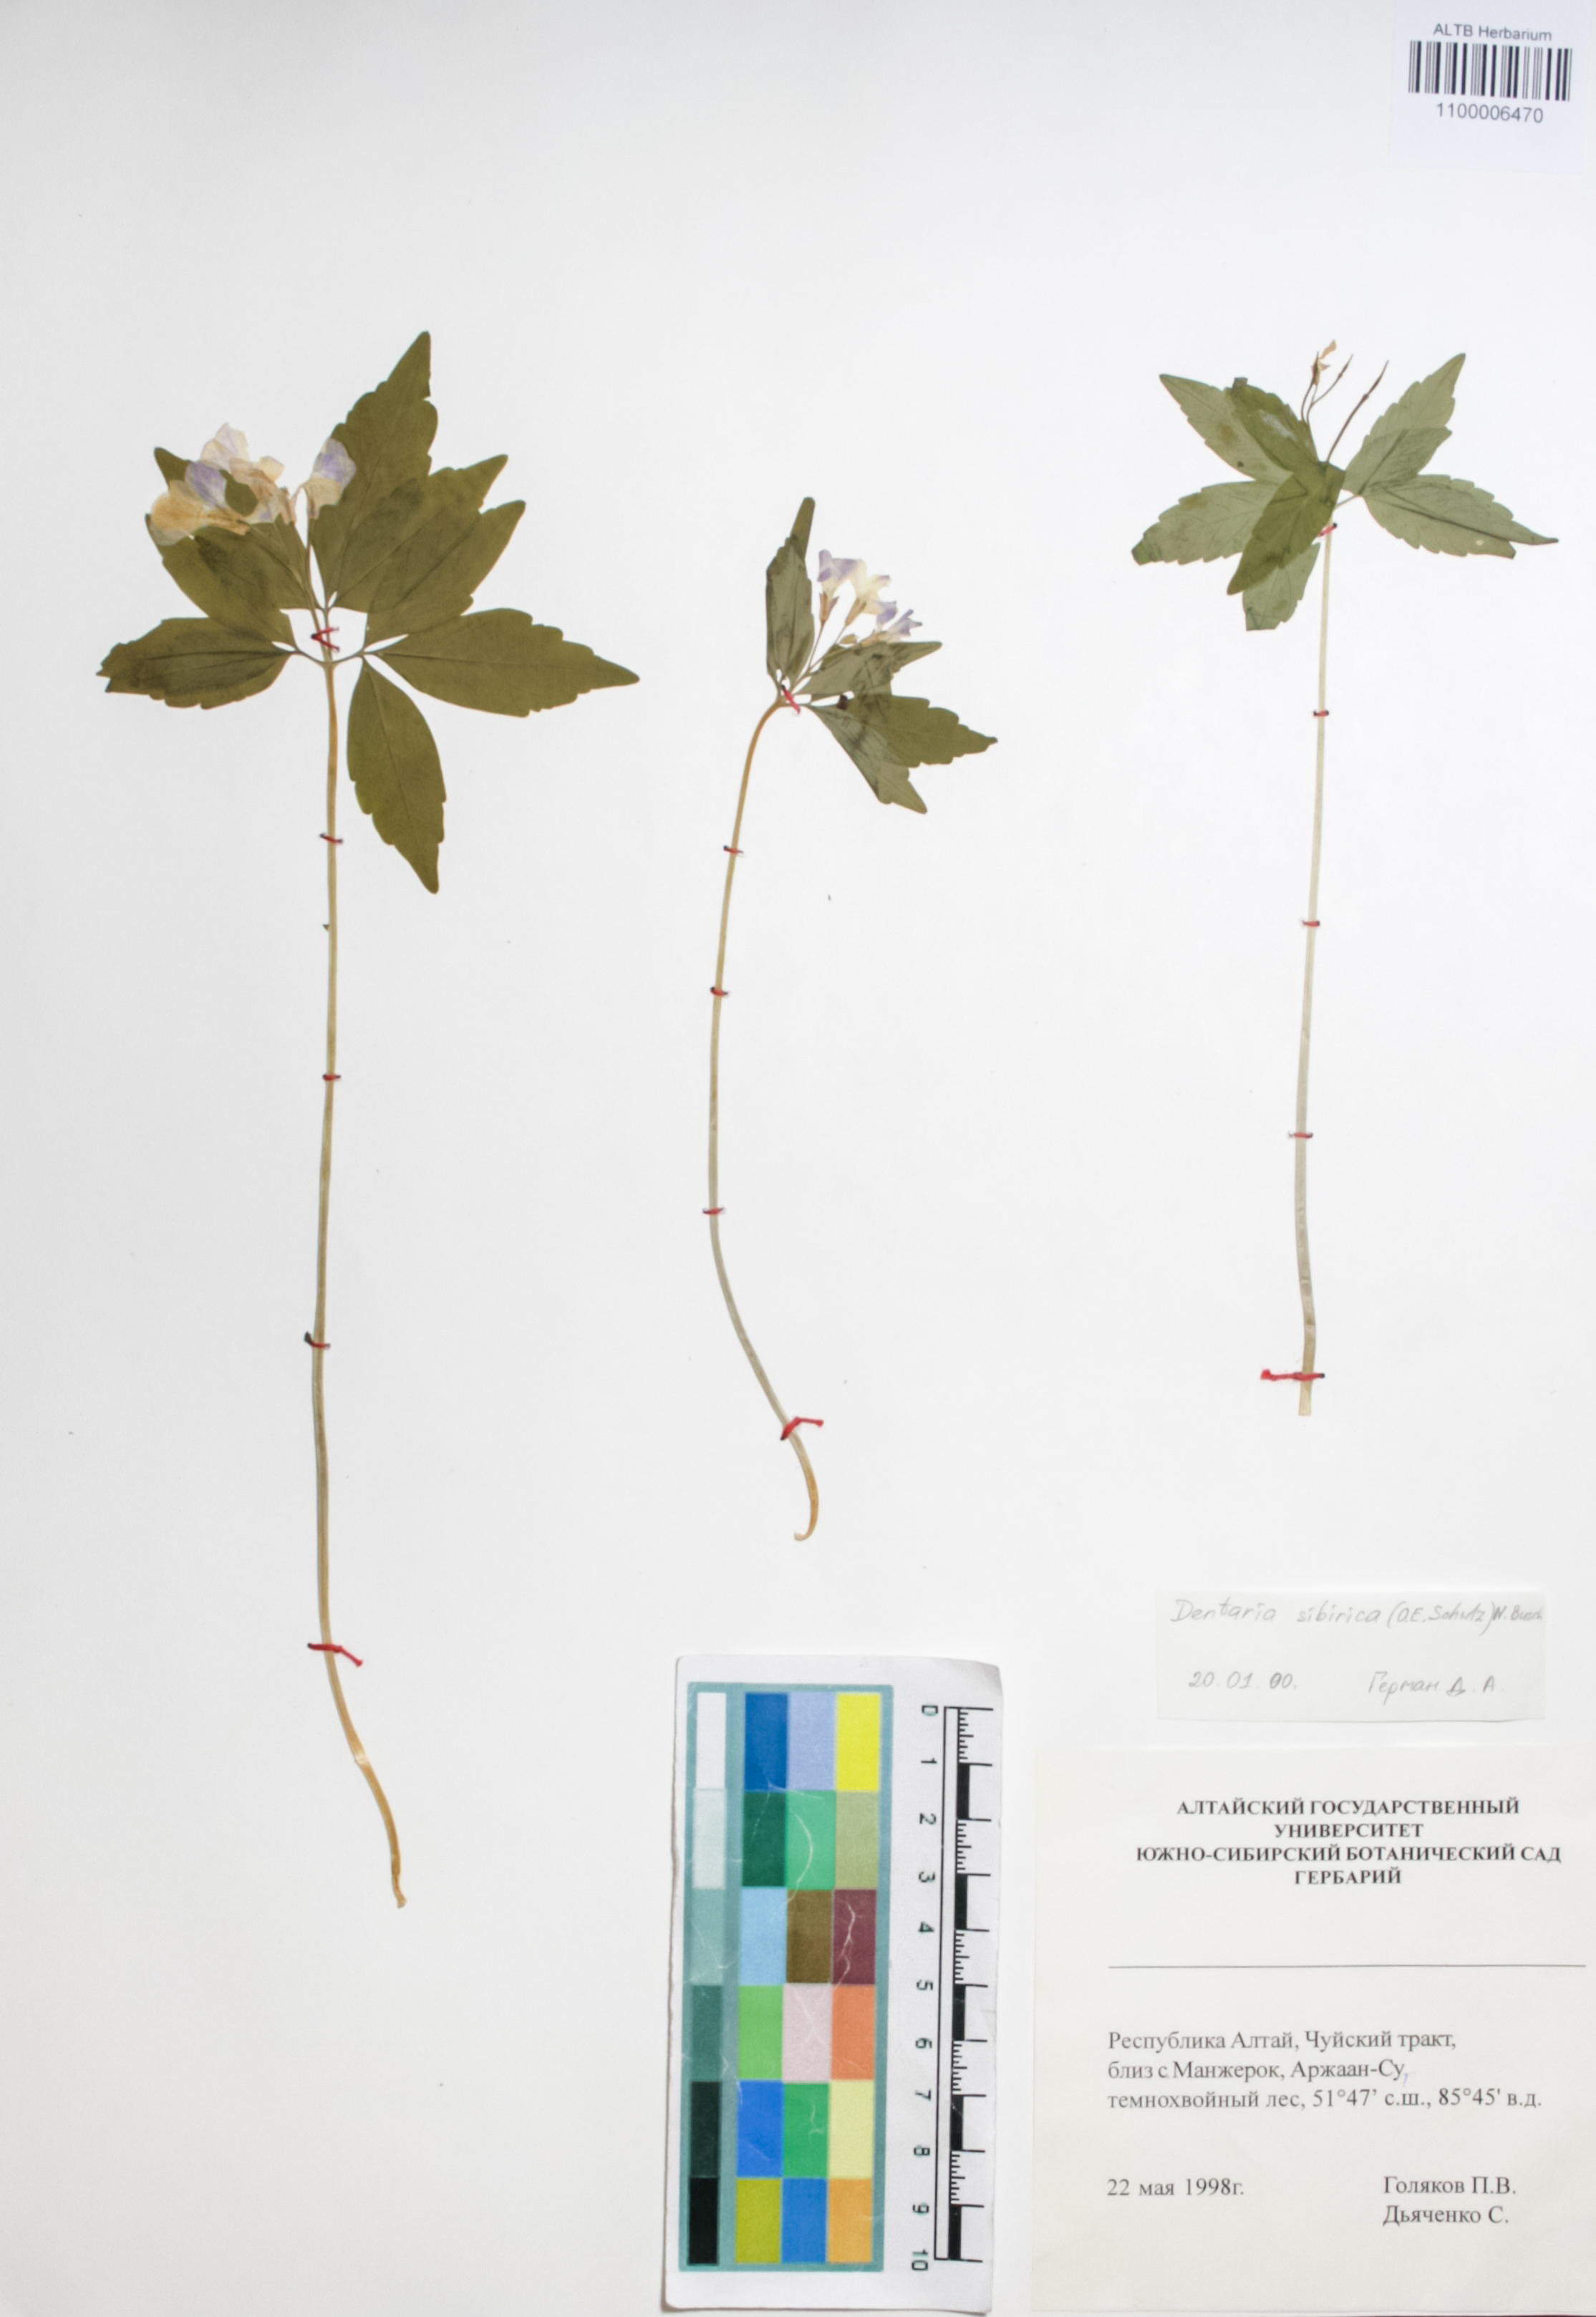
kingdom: Plantae
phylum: Tracheophyta
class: Magnoliopsida
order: Brassicales
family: Brassicaceae
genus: Cardamine
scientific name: Cardamine glanduligera
